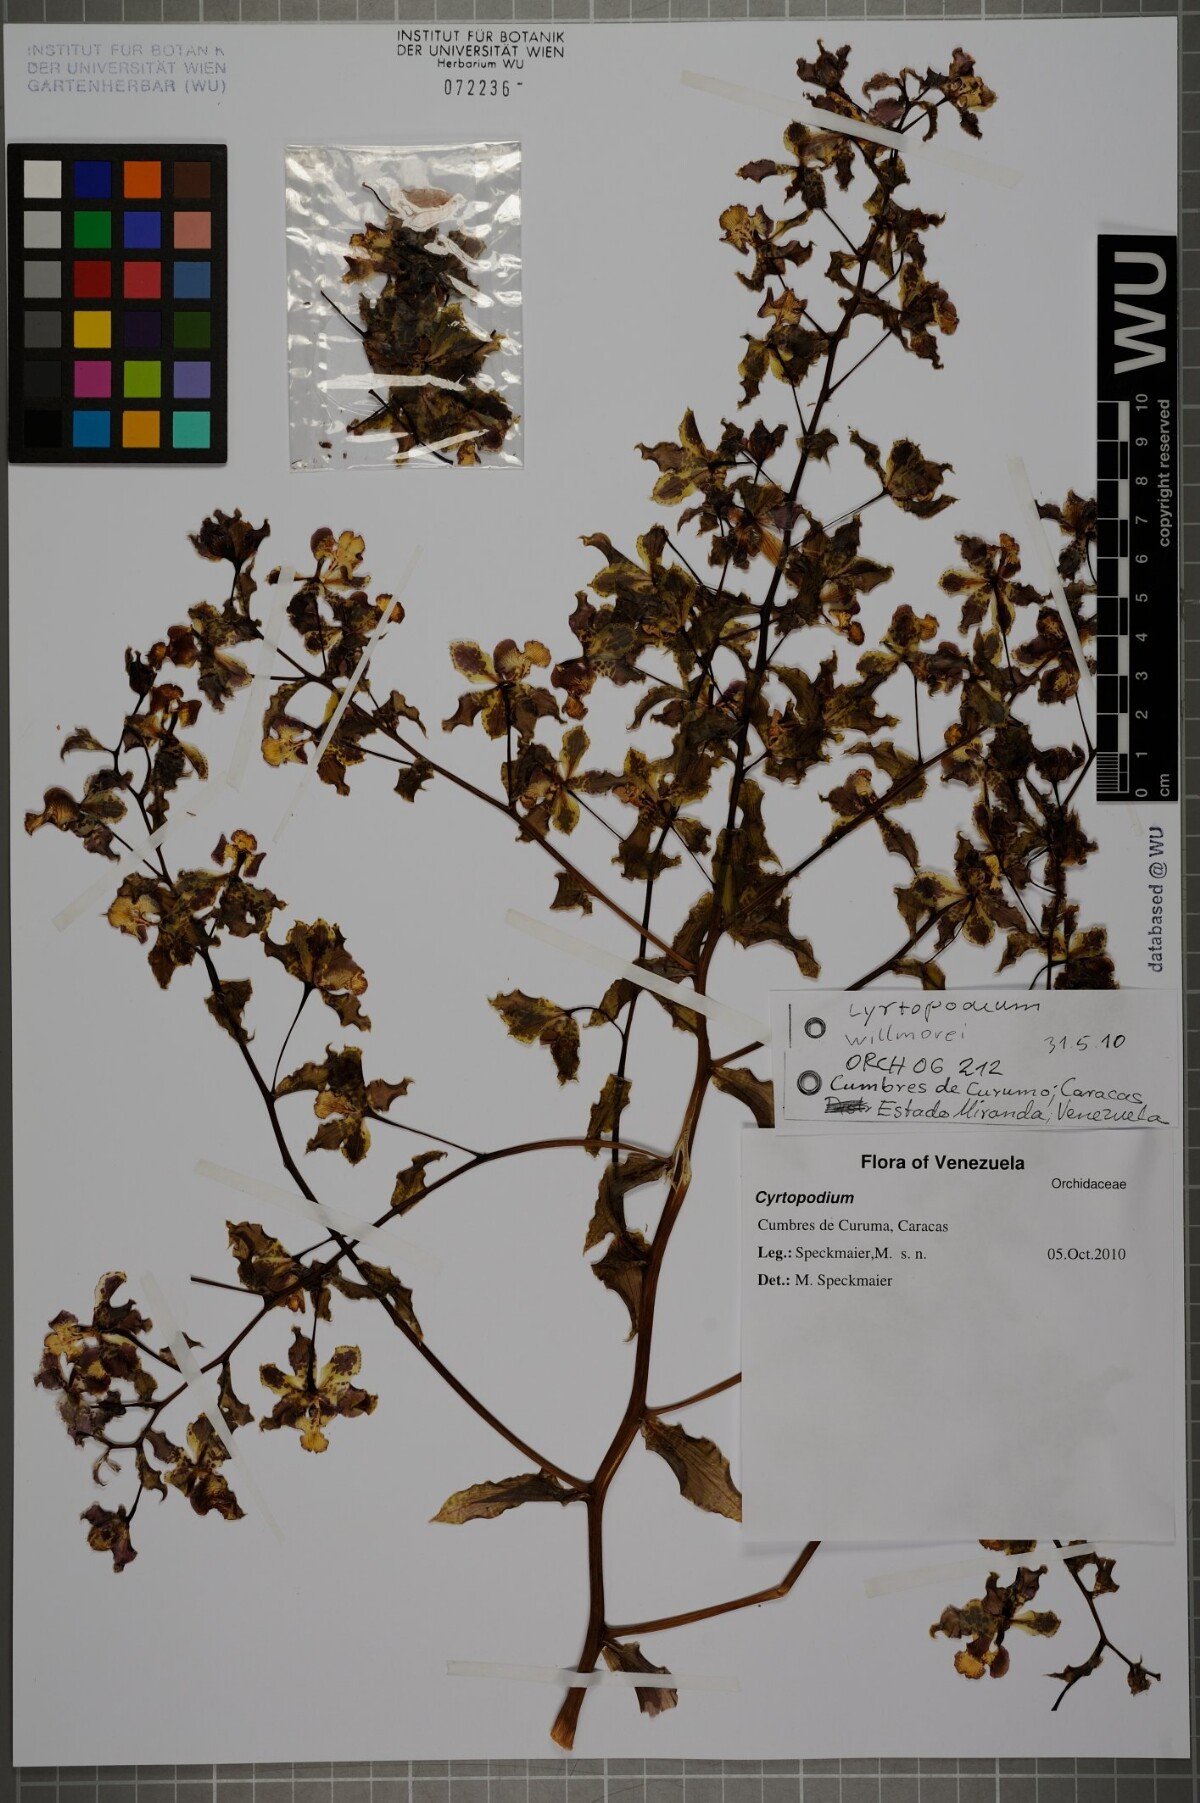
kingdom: Plantae
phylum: Tracheophyta
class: Liliopsida
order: Asparagales
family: Orchidaceae
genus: Cyrtopodium
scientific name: Cyrtopodium willmorei
